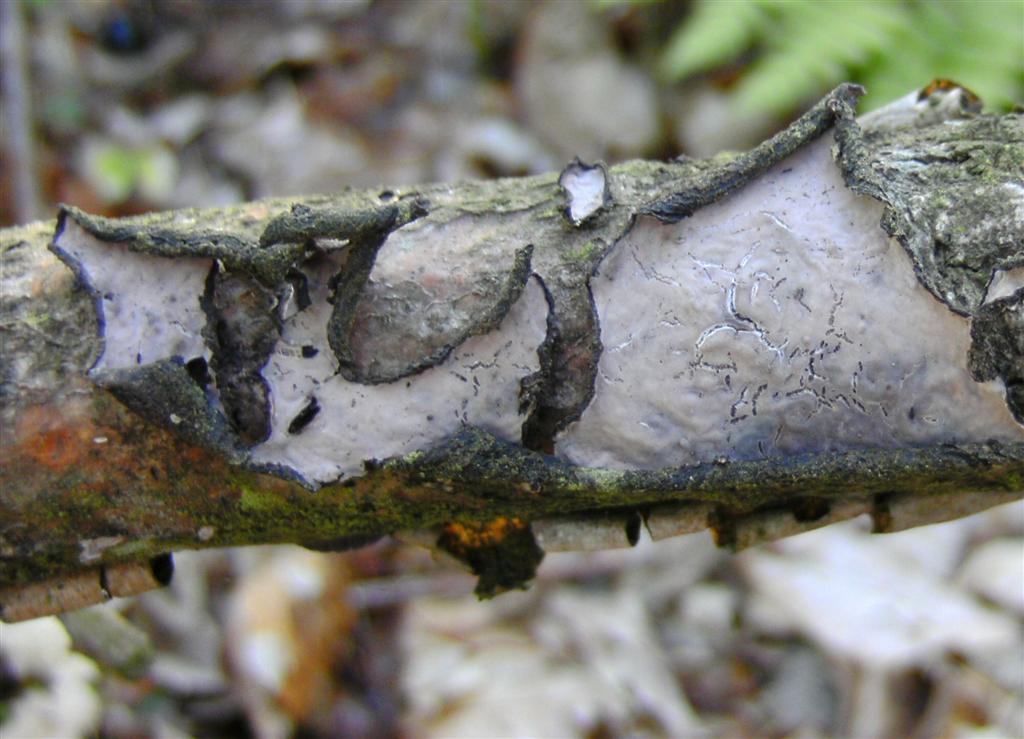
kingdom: Fungi
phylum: Basidiomycota
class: Agaricomycetes
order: Russulales
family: Peniophoraceae
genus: Peniophora
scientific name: Peniophora quercina
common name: ege-voksskind
